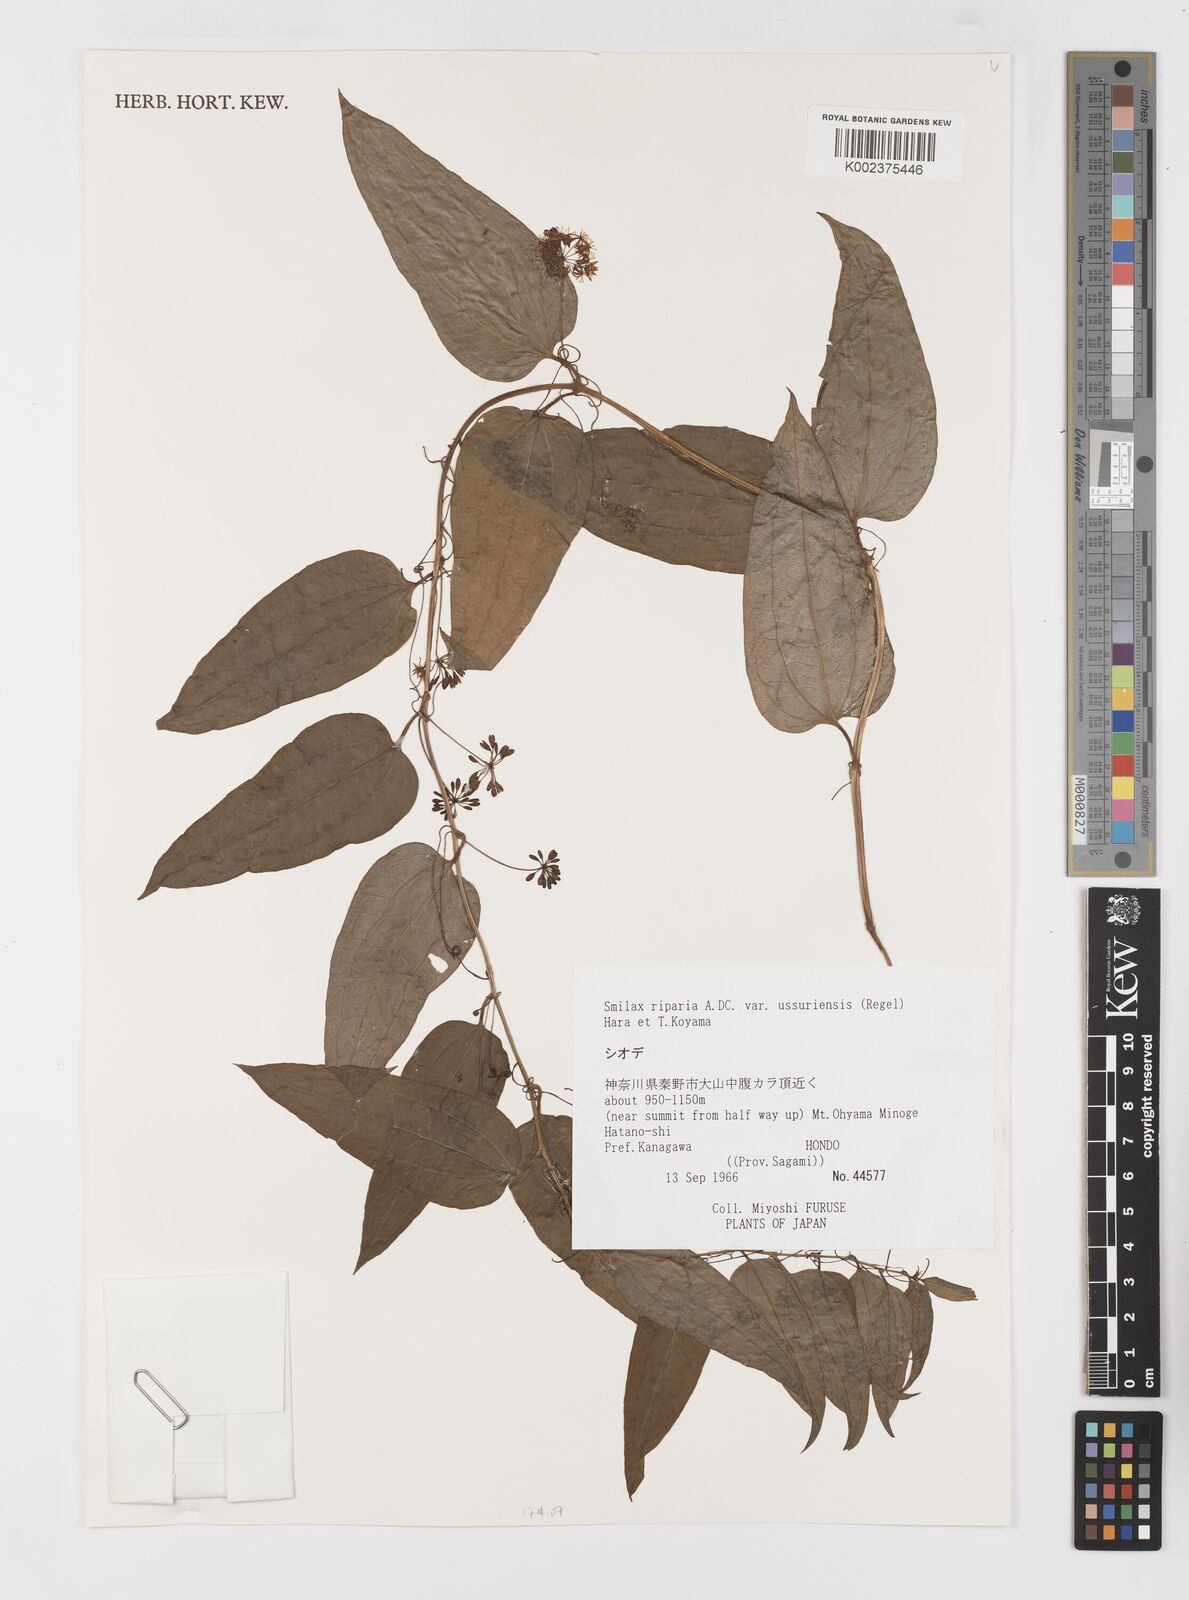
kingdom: Plantae
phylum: Tracheophyta
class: Liliopsida
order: Liliales
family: Smilacaceae
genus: Smilax
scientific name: Smilax riparia
